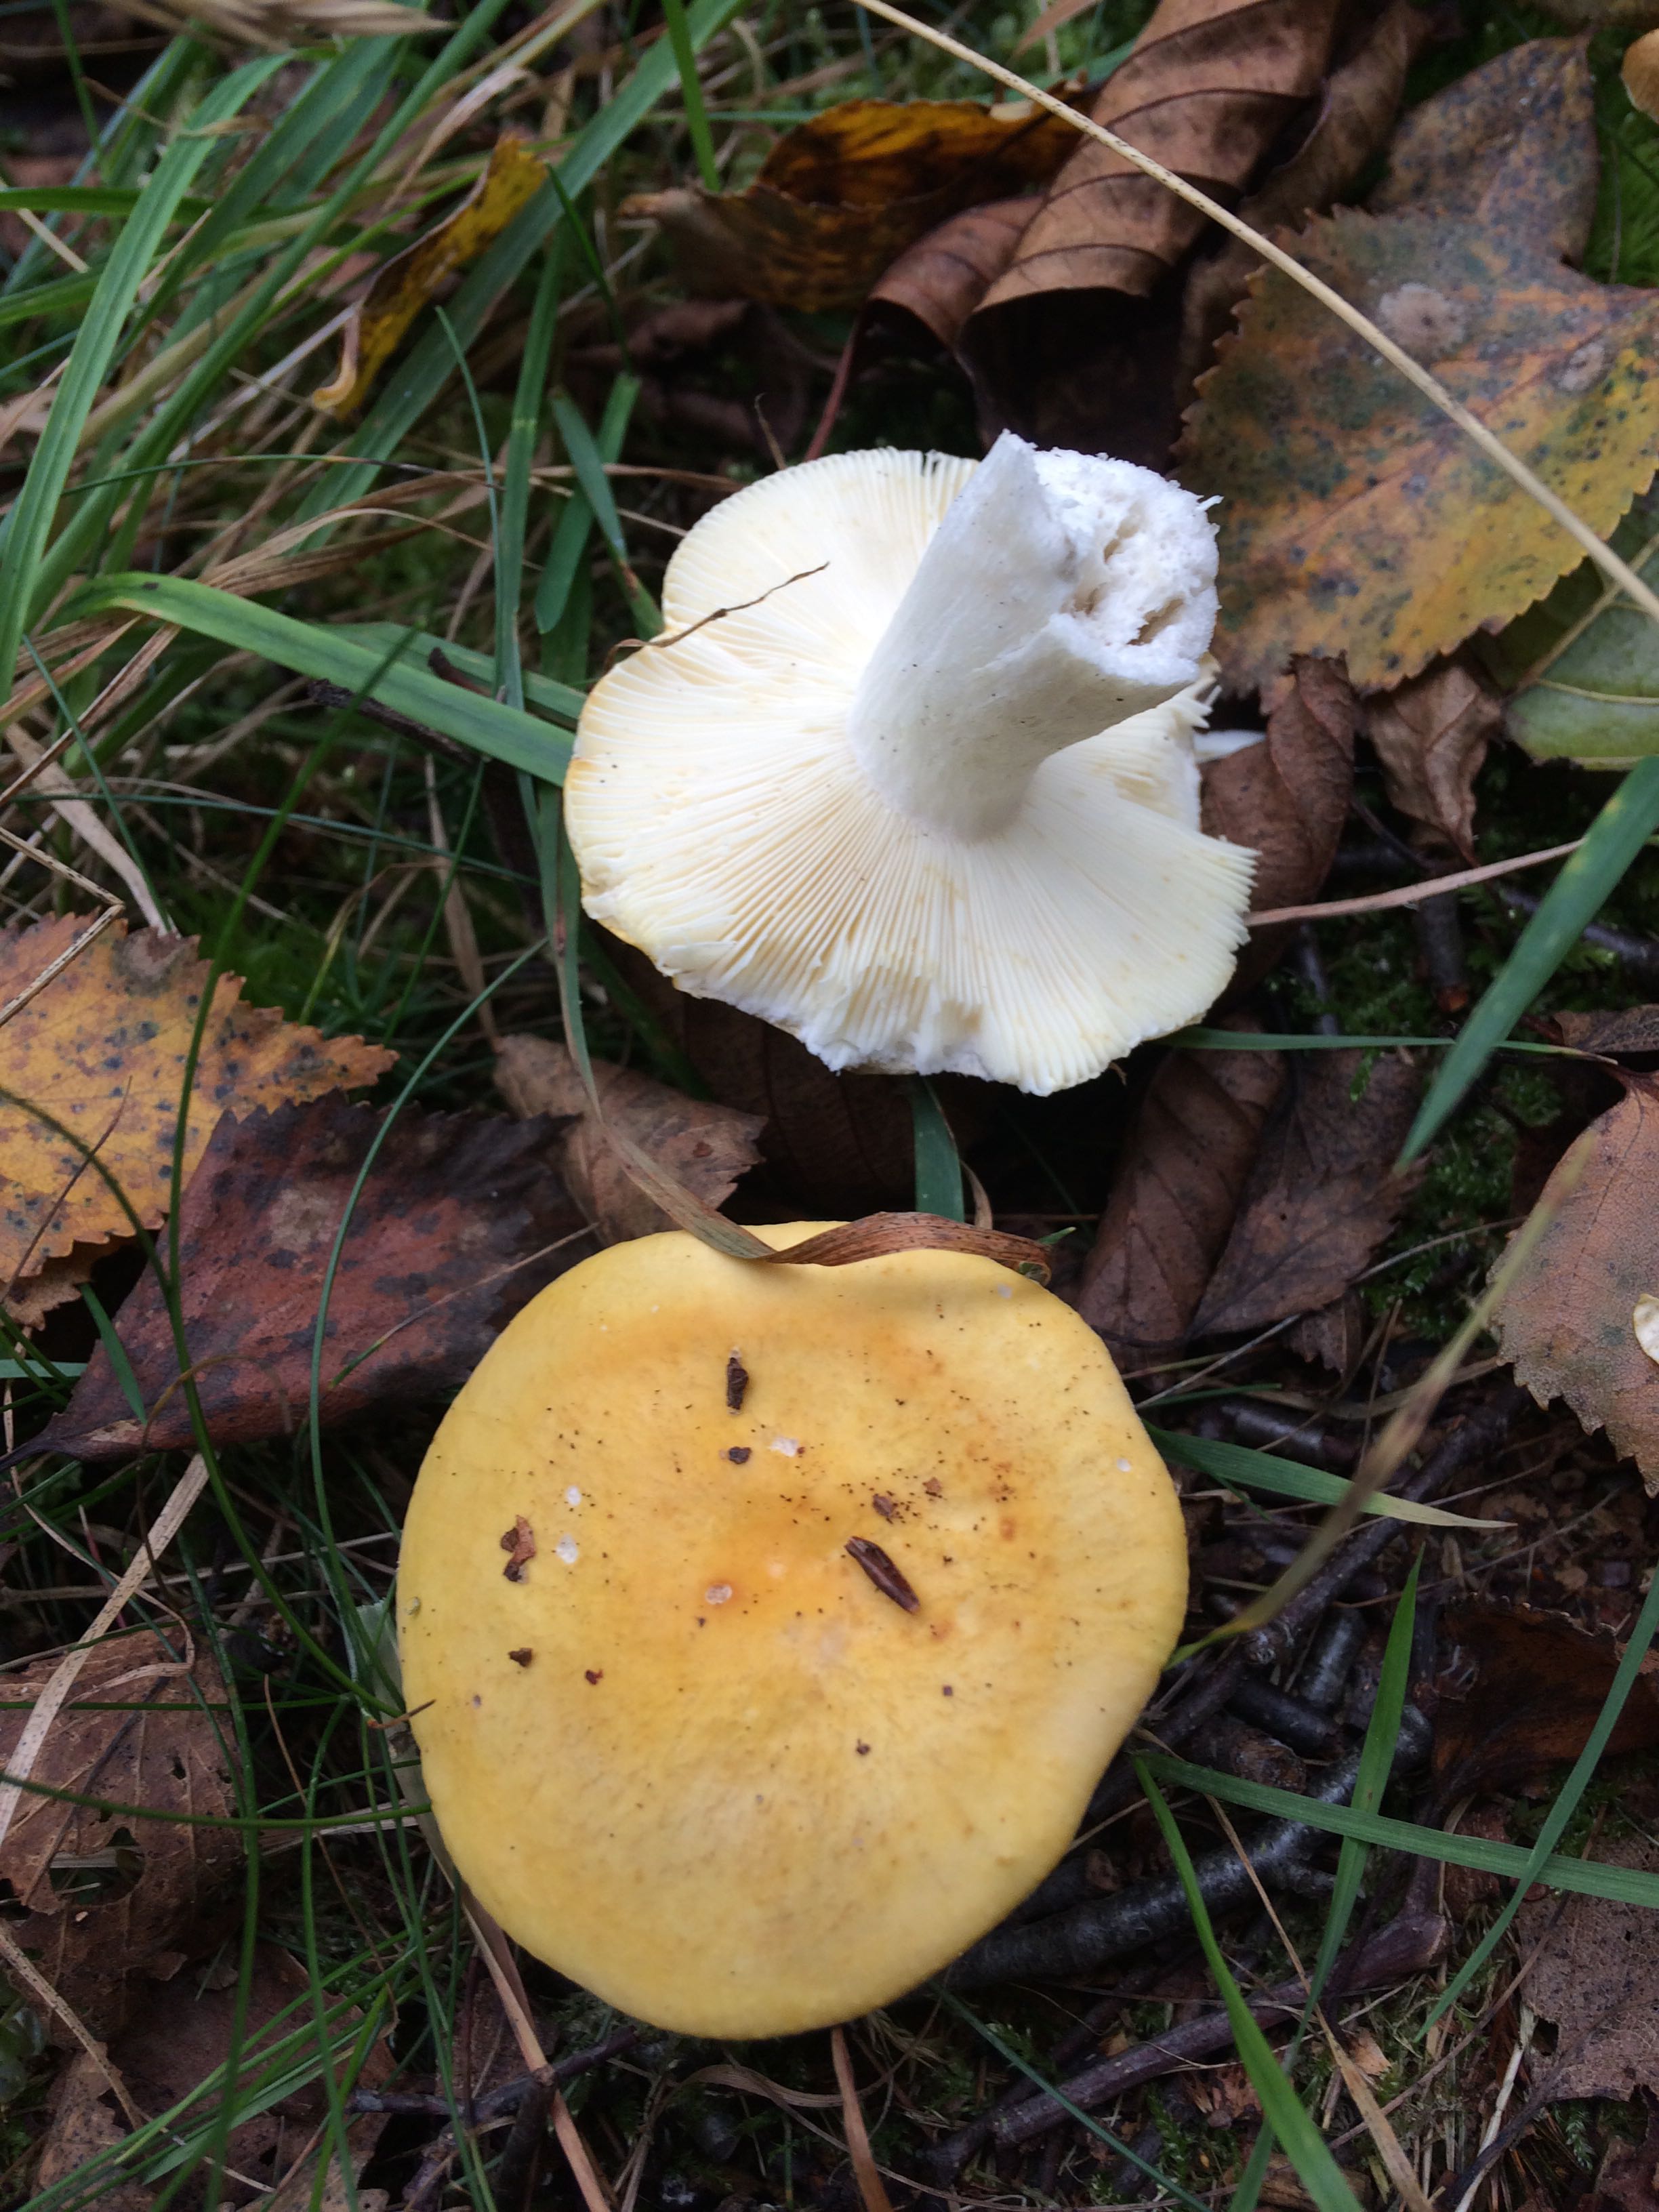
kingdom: Fungi
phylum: Basidiomycota
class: Agaricomycetes
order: Russulales
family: Russulaceae
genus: Russula
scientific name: Russula claroflava
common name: birke-skørhat
